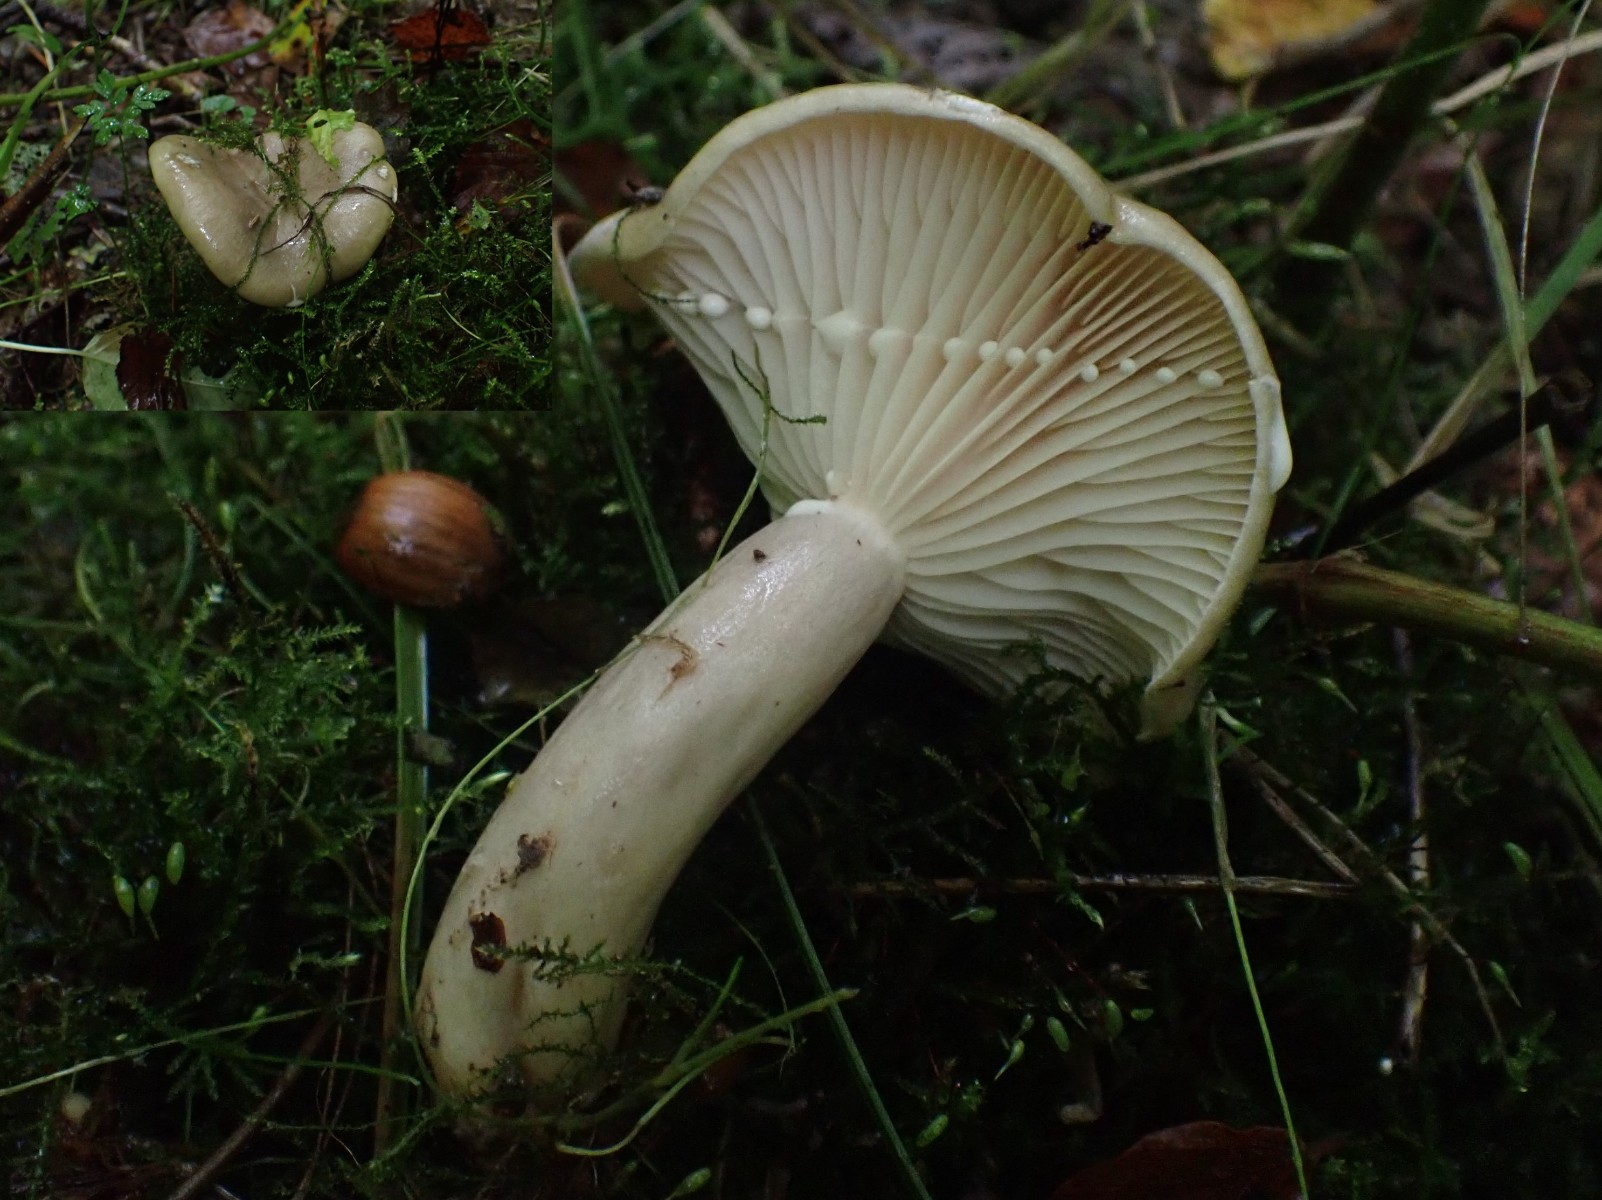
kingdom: Fungi
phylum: Basidiomycota
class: Agaricomycetes
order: Russulales
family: Russulaceae
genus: Lactarius
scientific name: Lactarius pyrogalus
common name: hassel-mælkehat
